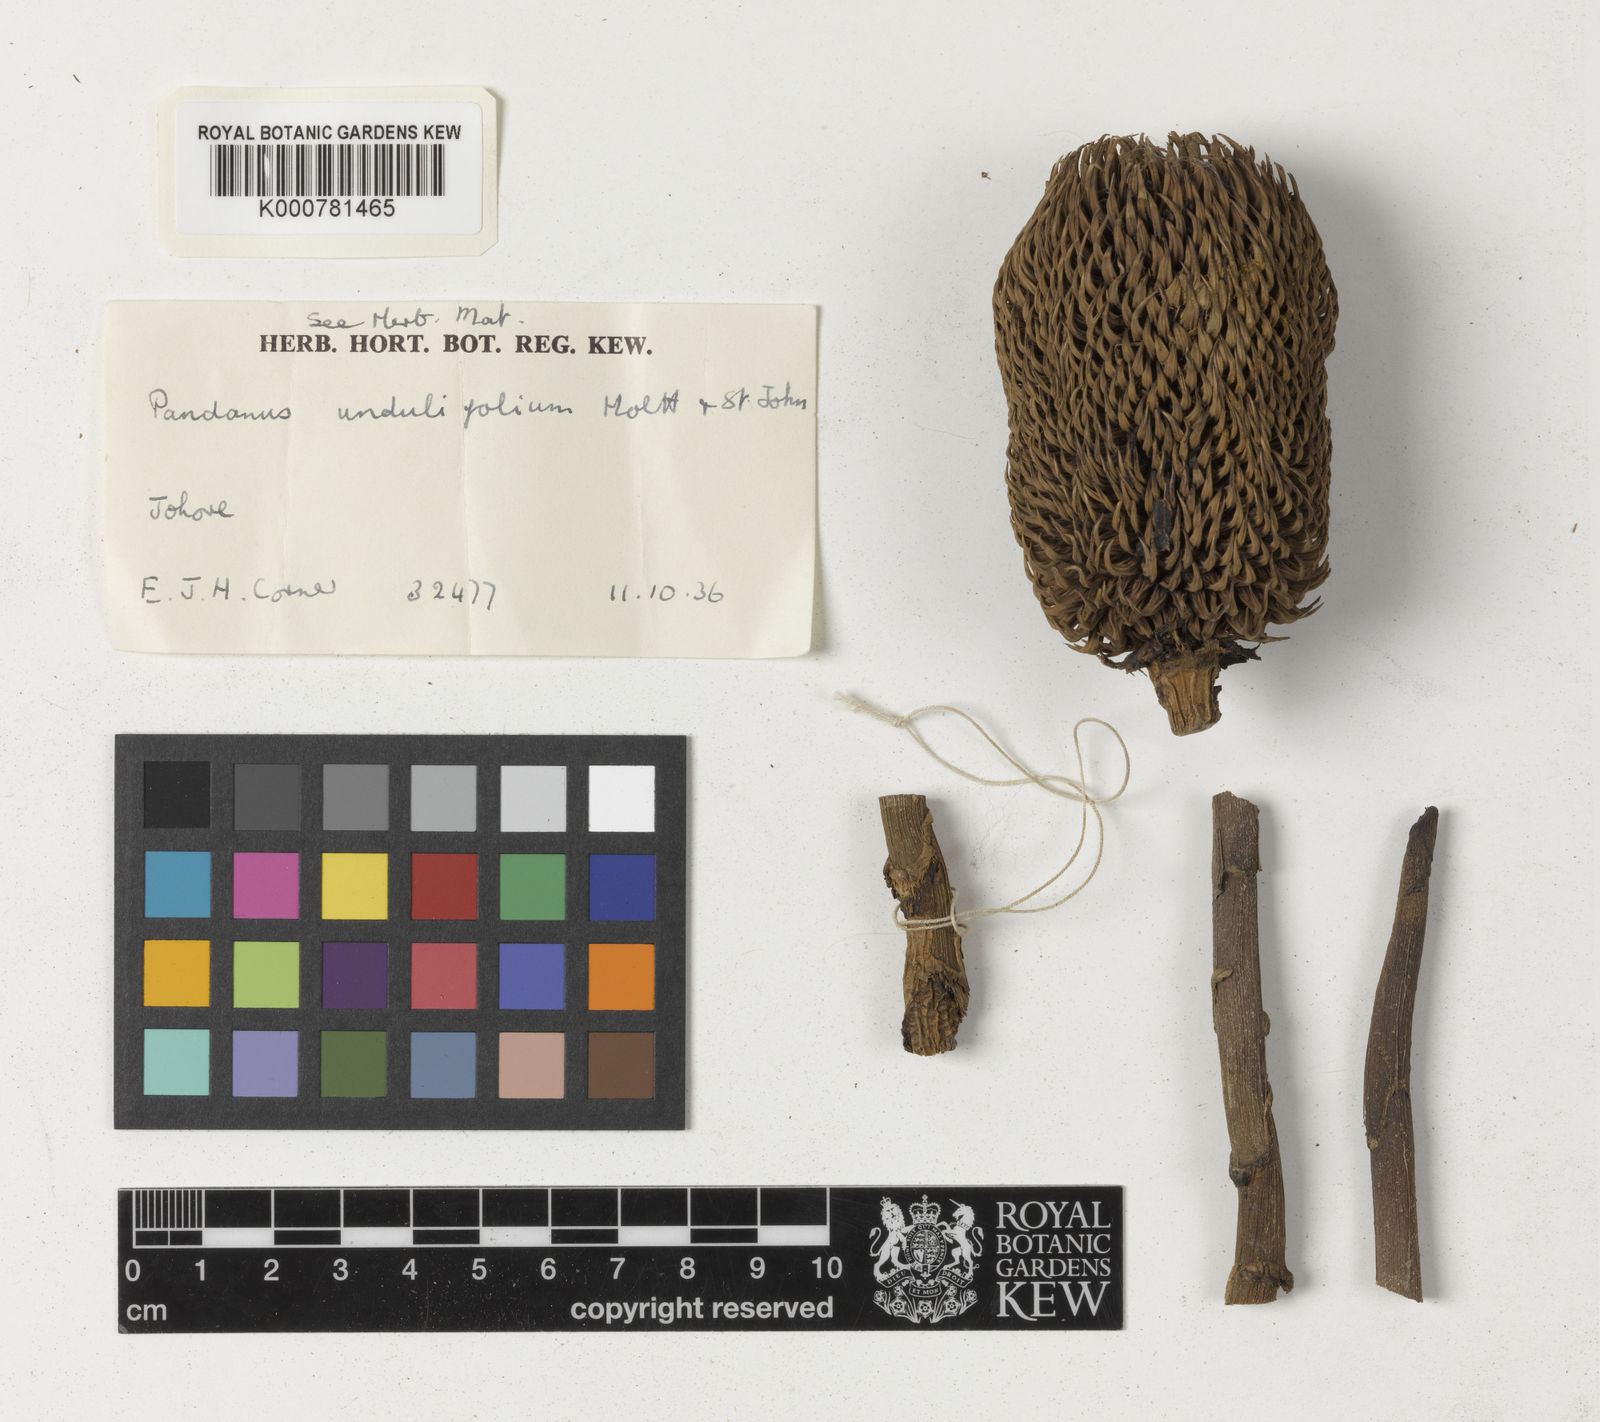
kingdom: Plantae
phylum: Tracheophyta
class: Liliopsida
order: Pandanales
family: Pandanaceae
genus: Benstonea
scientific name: Benstonea undulifolia
